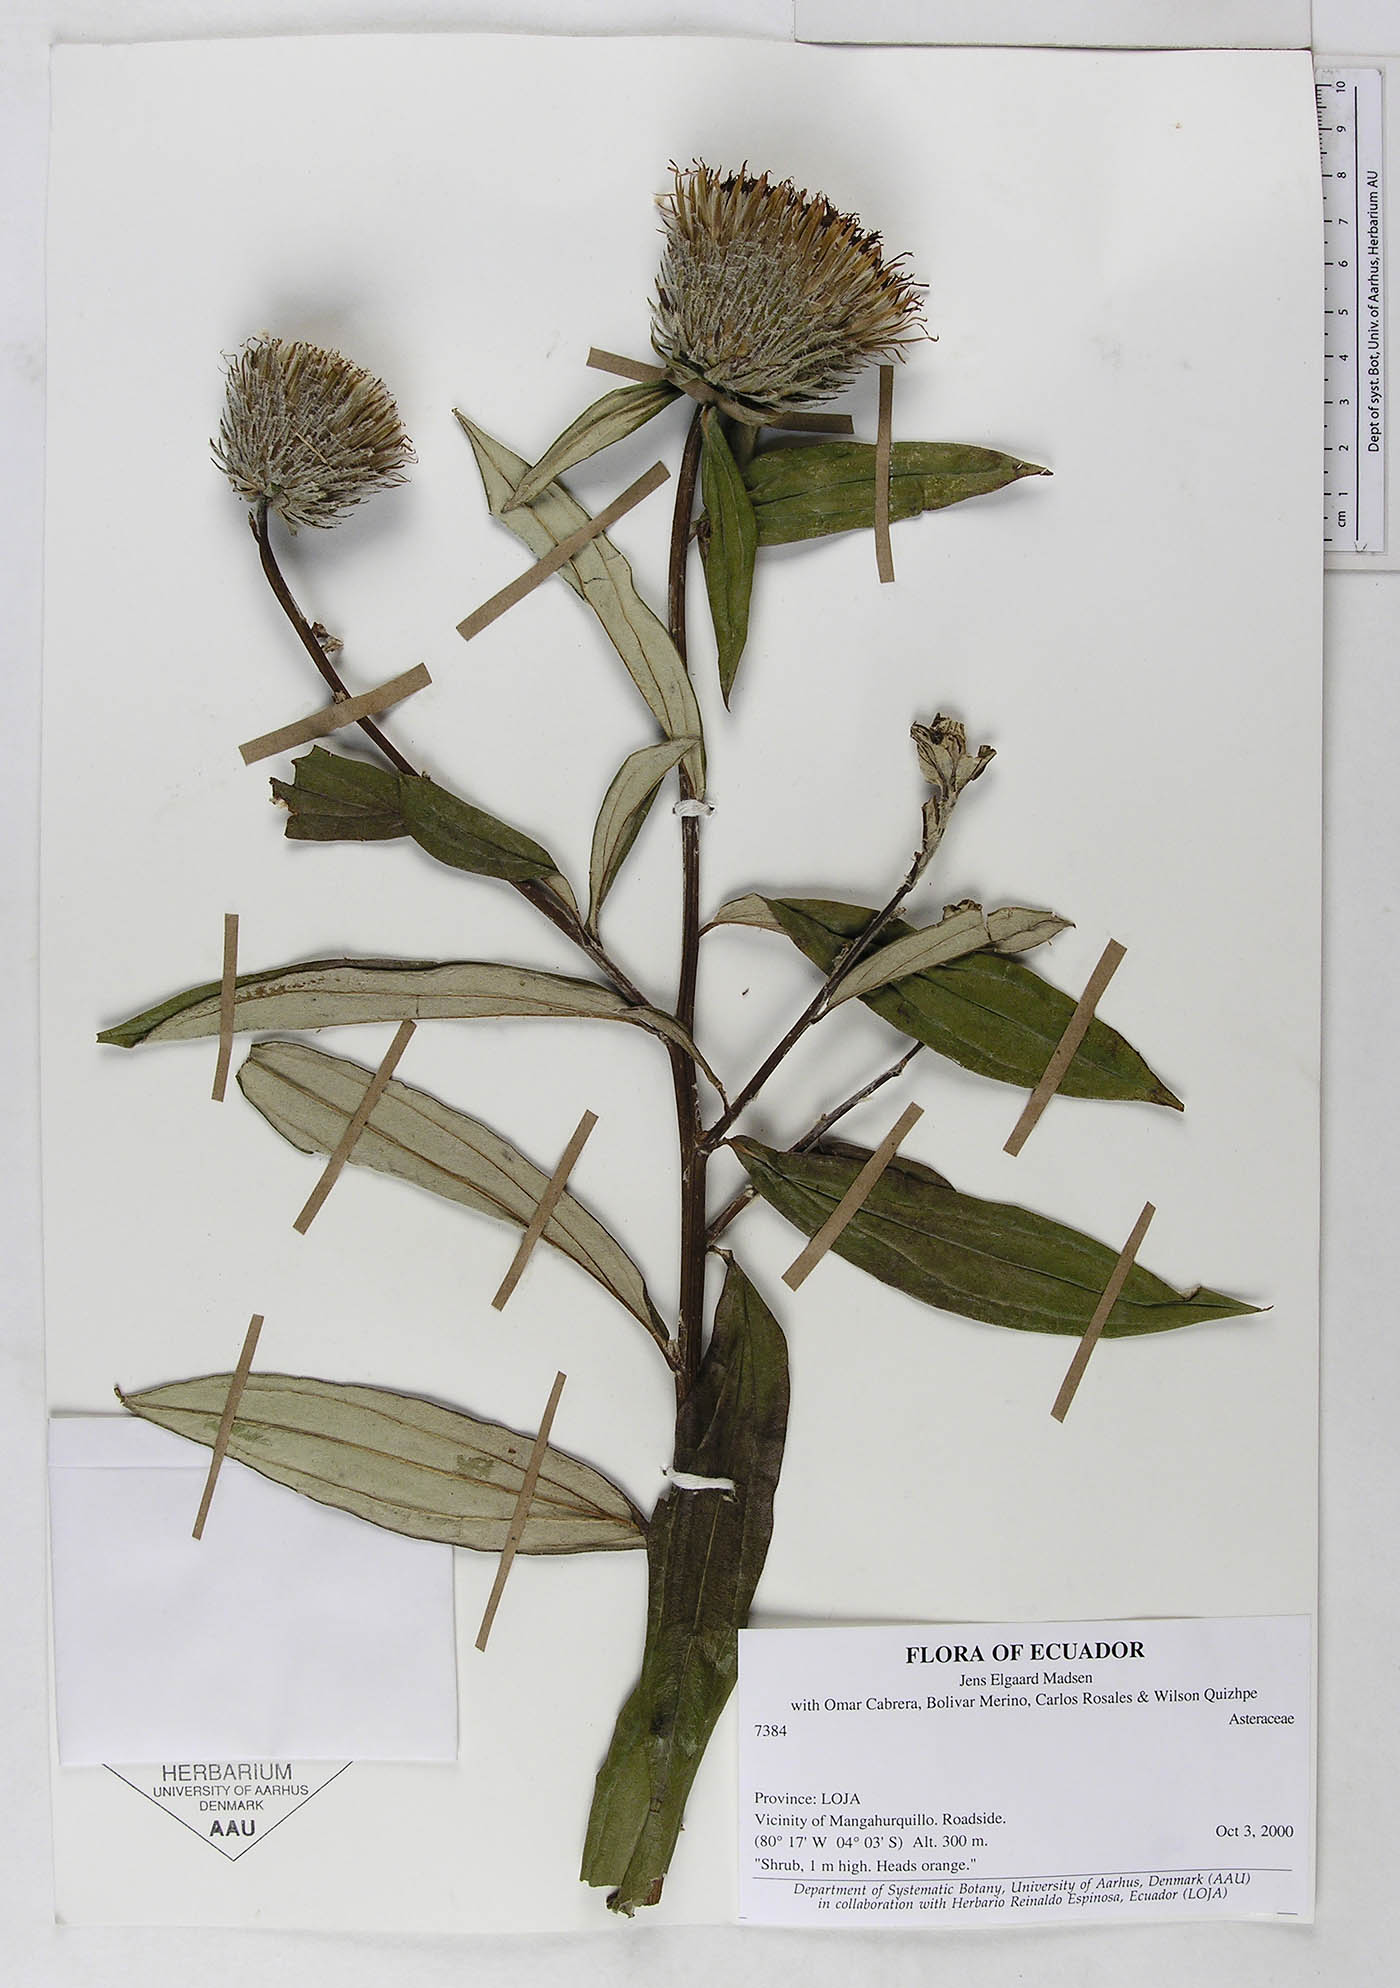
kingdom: Plantae
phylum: Tracheophyta
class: Magnoliopsida
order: Asterales
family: Asteraceae
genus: Lycoseris
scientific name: Lycoseris trinervis
